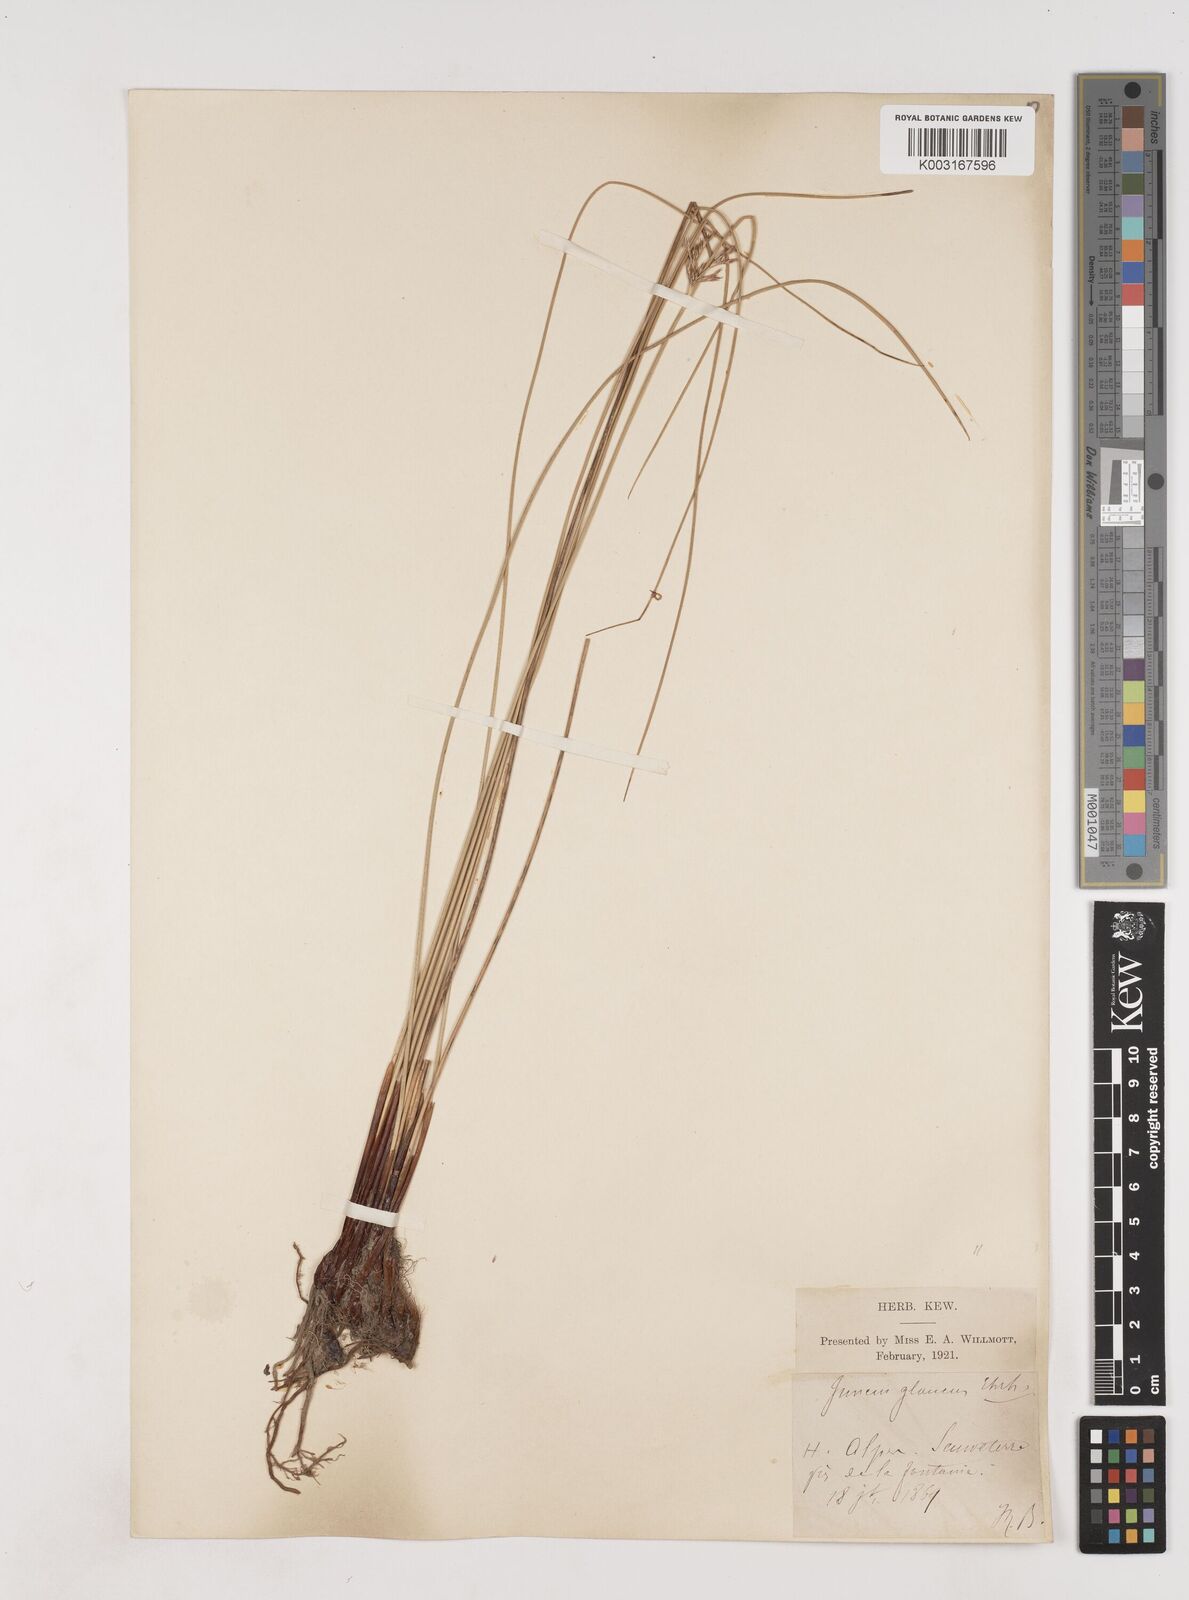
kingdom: Plantae
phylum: Tracheophyta
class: Liliopsida
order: Poales
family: Juncaceae
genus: Juncus
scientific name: Juncus inflexus
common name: Hard rush
